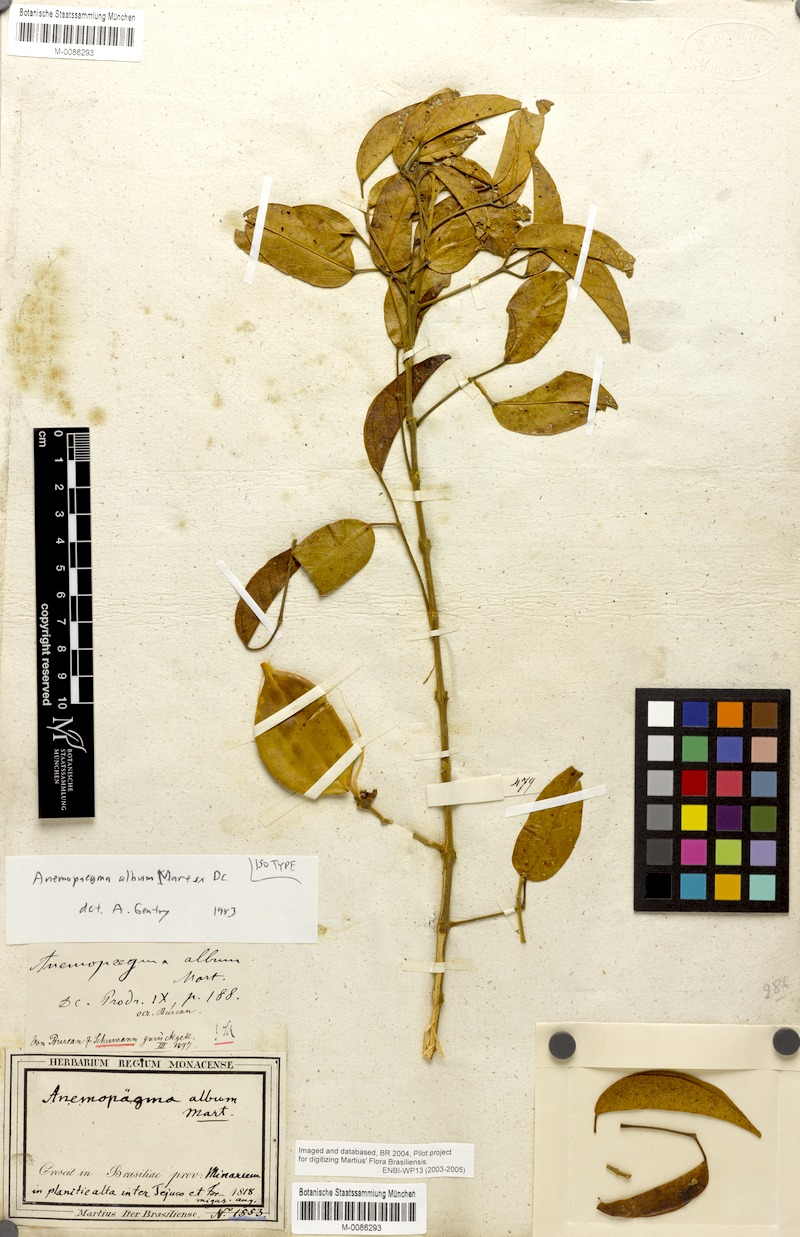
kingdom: Plantae
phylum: Tracheophyta
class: Magnoliopsida
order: Lamiales
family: Bignoniaceae
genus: Anemopaegma
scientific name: Anemopaegma album
